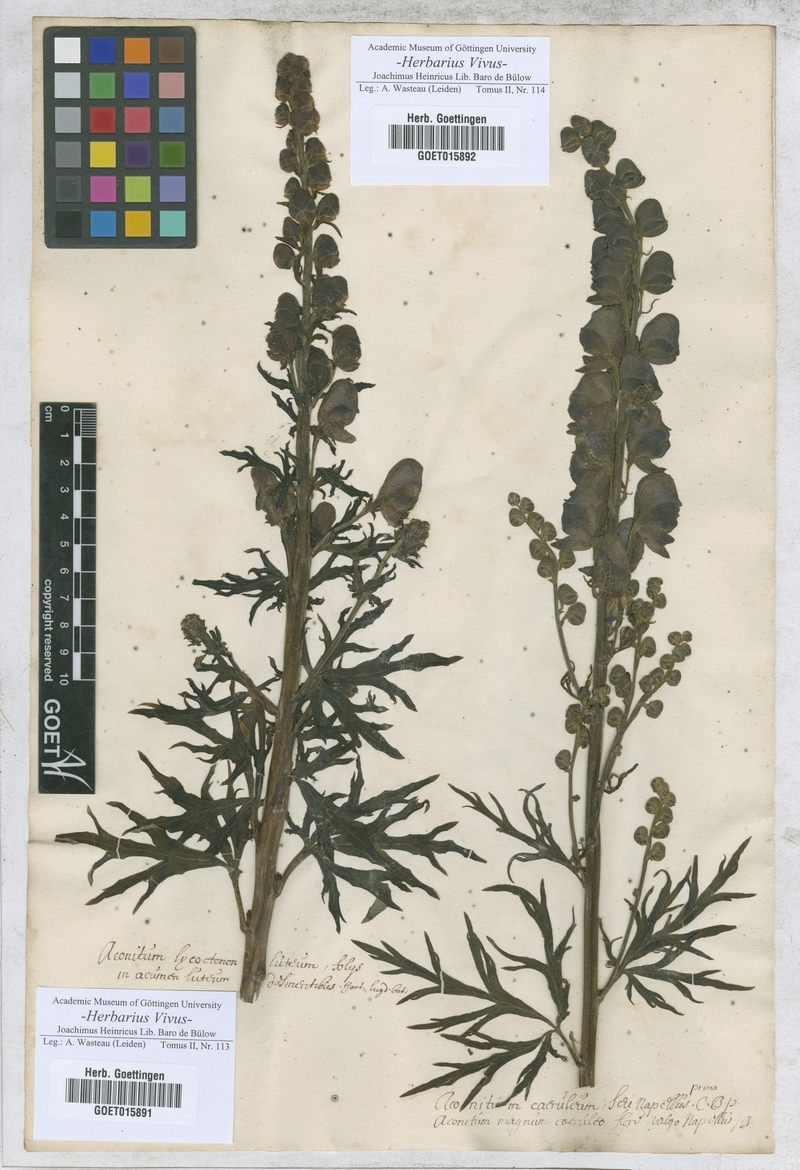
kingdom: Plantae
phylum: Tracheophyta
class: Magnoliopsida
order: Ranunculales
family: Ranunculaceae
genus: Aconitum
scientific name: Aconitum
